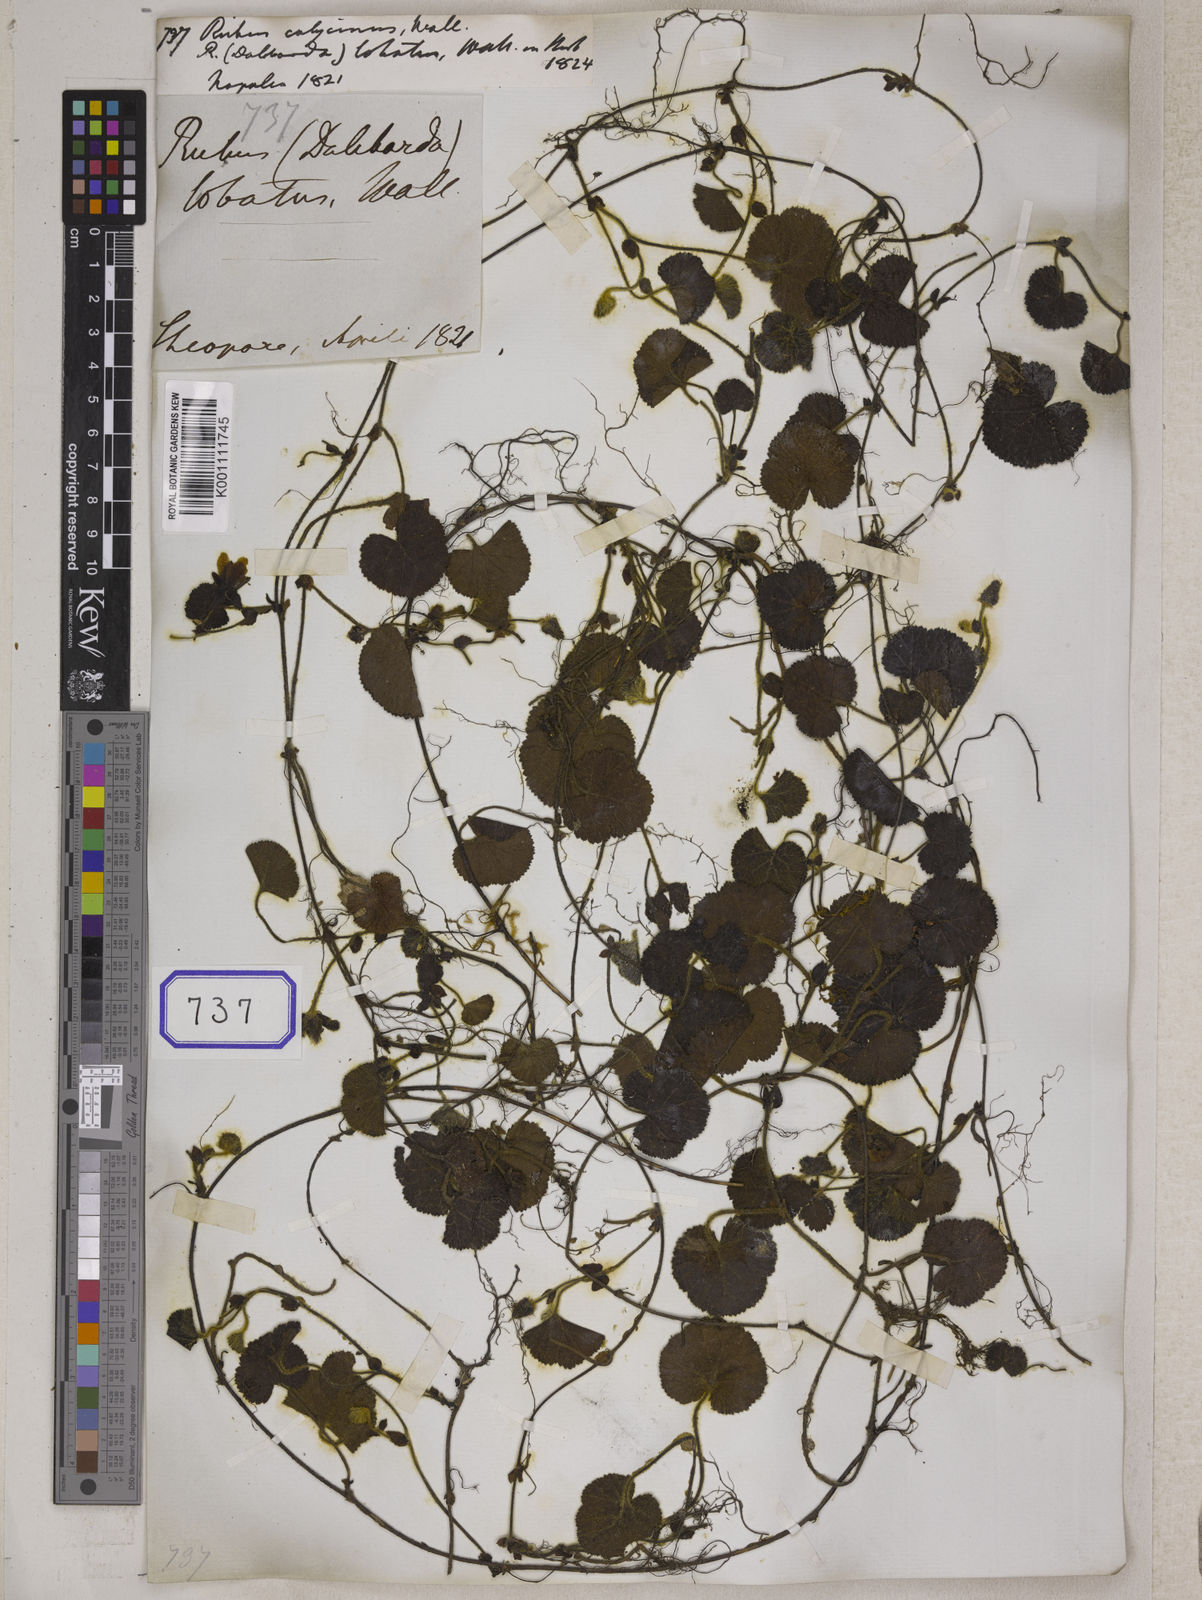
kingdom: Plantae
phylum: Tracheophyta
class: Magnoliopsida
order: Rosales
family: Rosaceae
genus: Rubus
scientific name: Rubus
